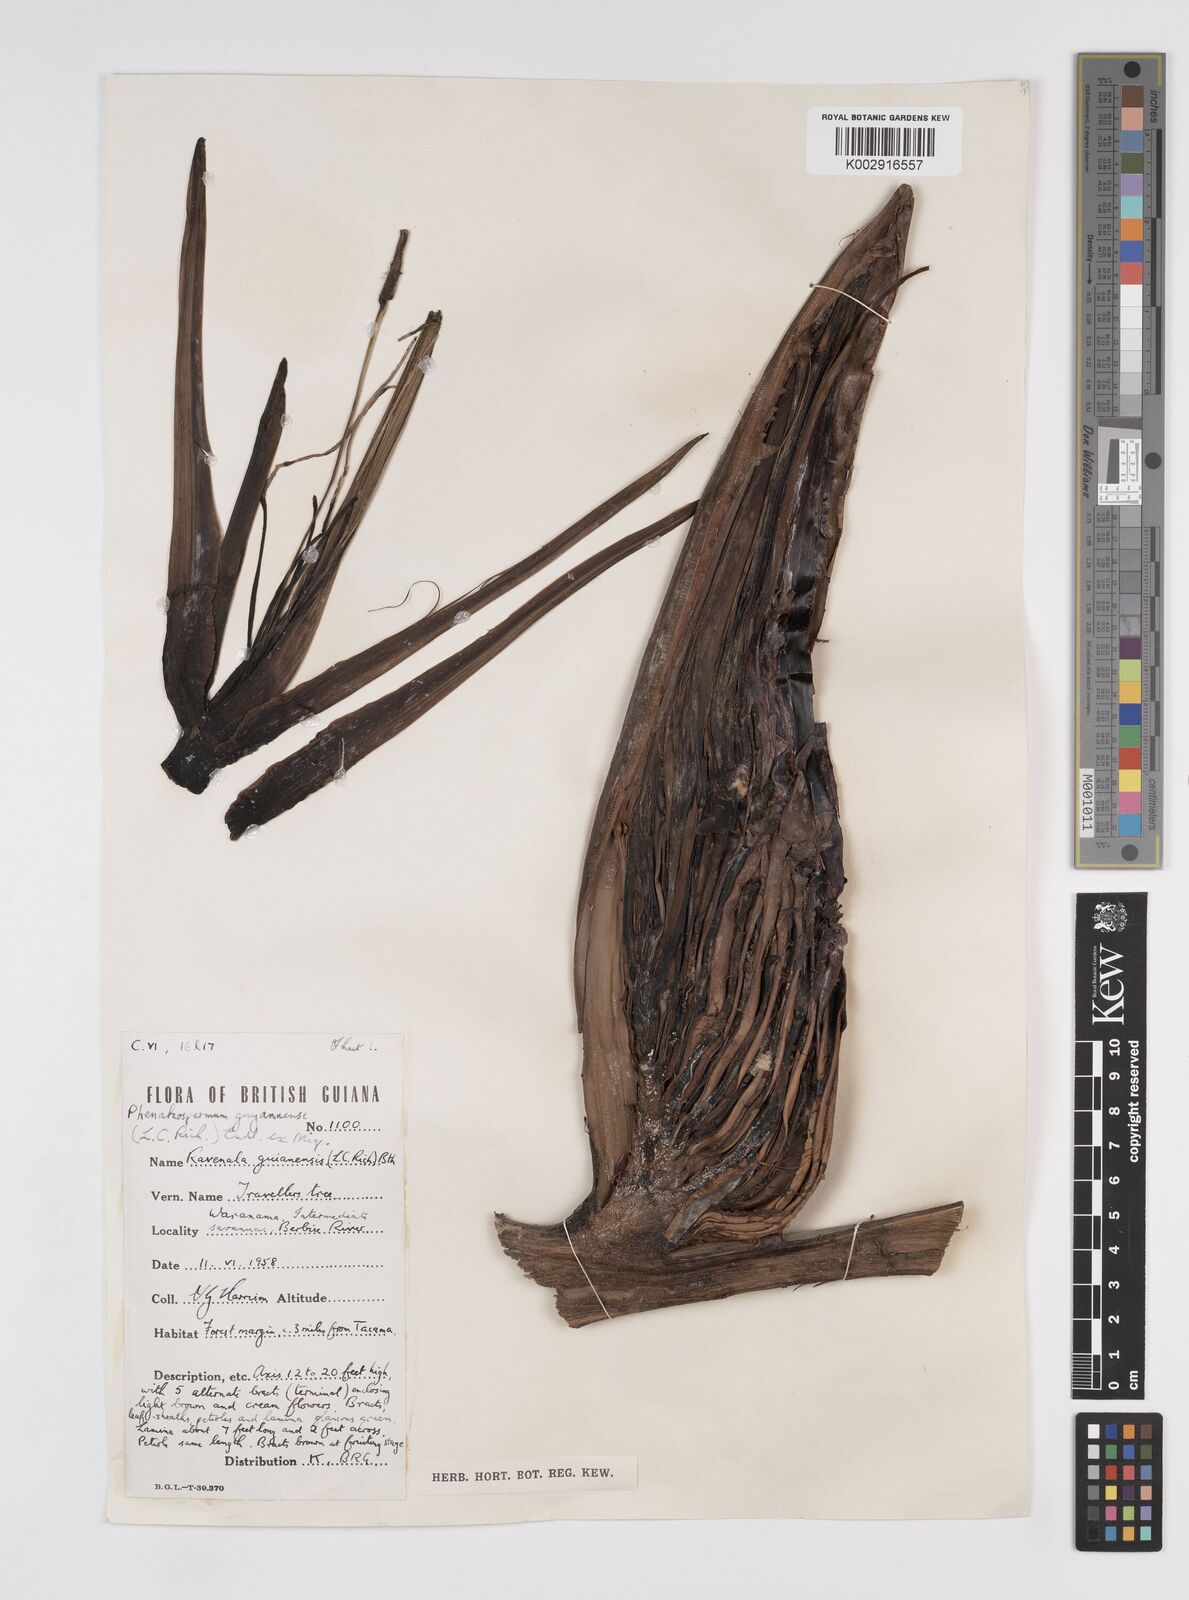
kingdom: Plantae
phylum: Tracheophyta
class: Liliopsida
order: Zingiberales
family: Strelitziaceae
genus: Phenakospermum
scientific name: Phenakospermum guyannense
